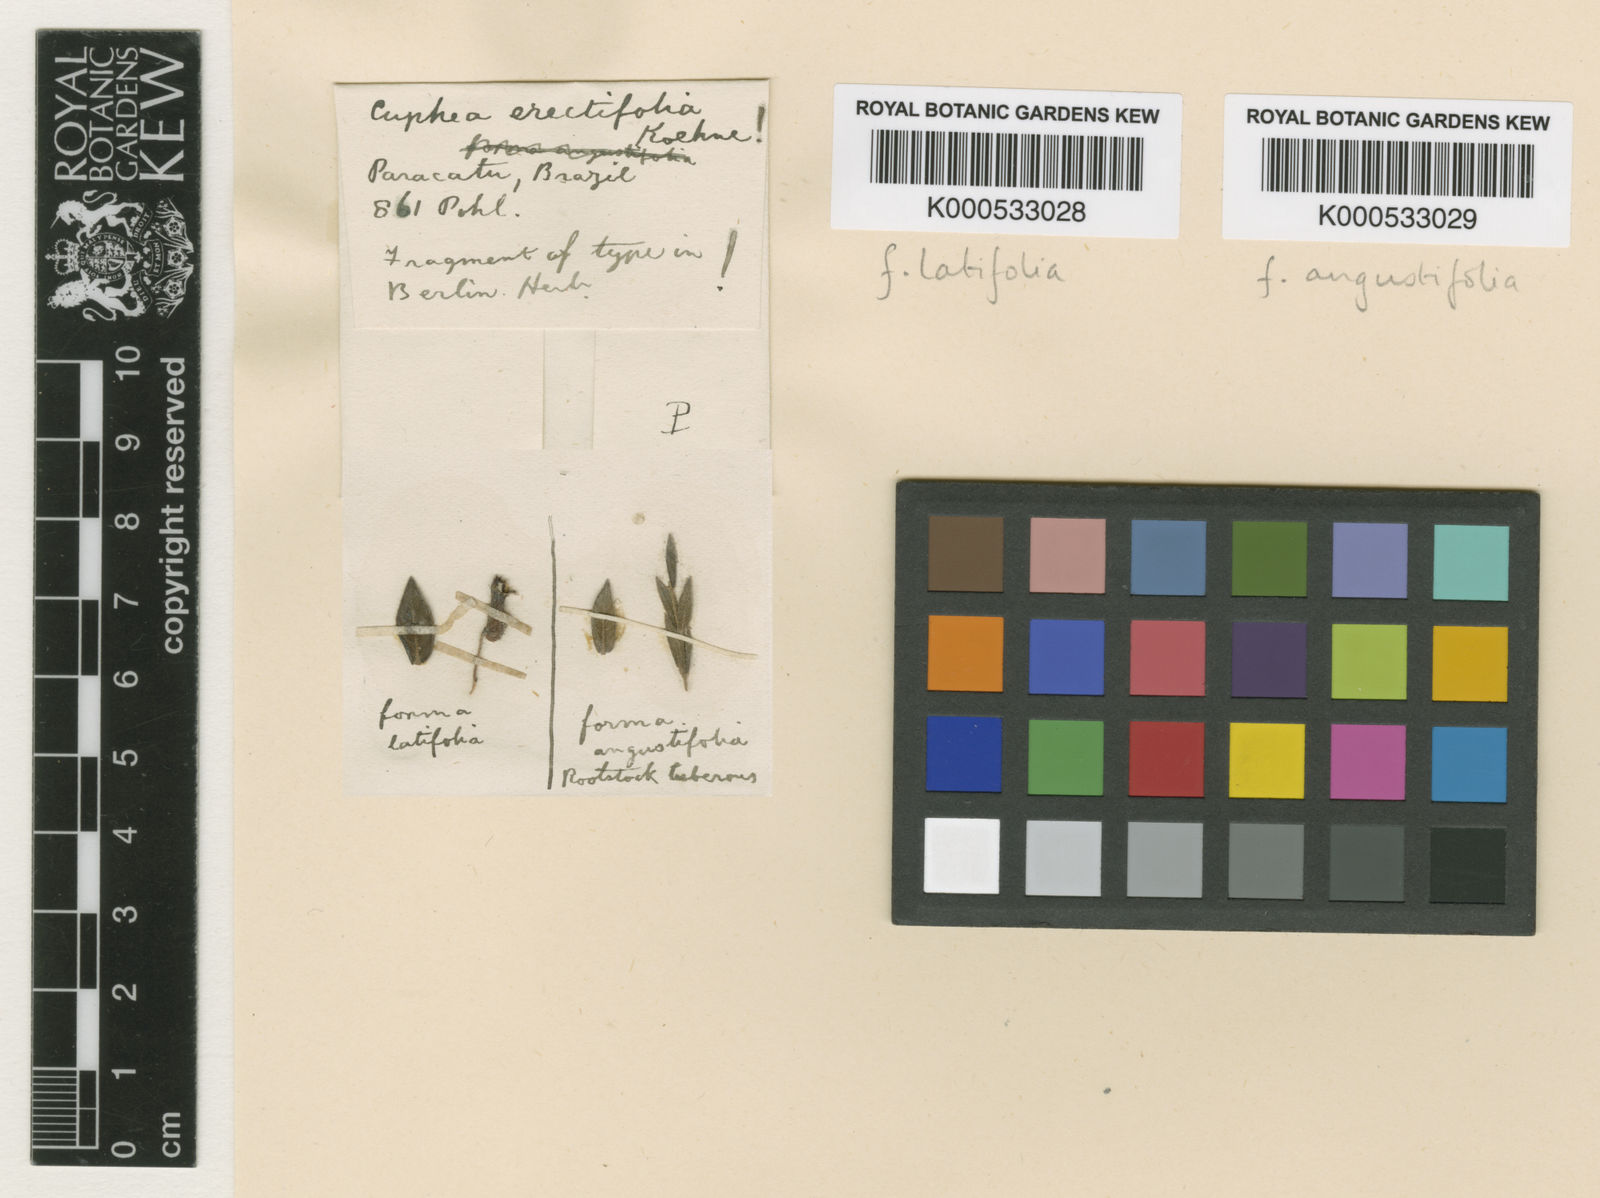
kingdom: Plantae
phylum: Tracheophyta
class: Magnoliopsida
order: Myrtales
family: Lythraceae
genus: Cuphea
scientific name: Cuphea spermacoce
